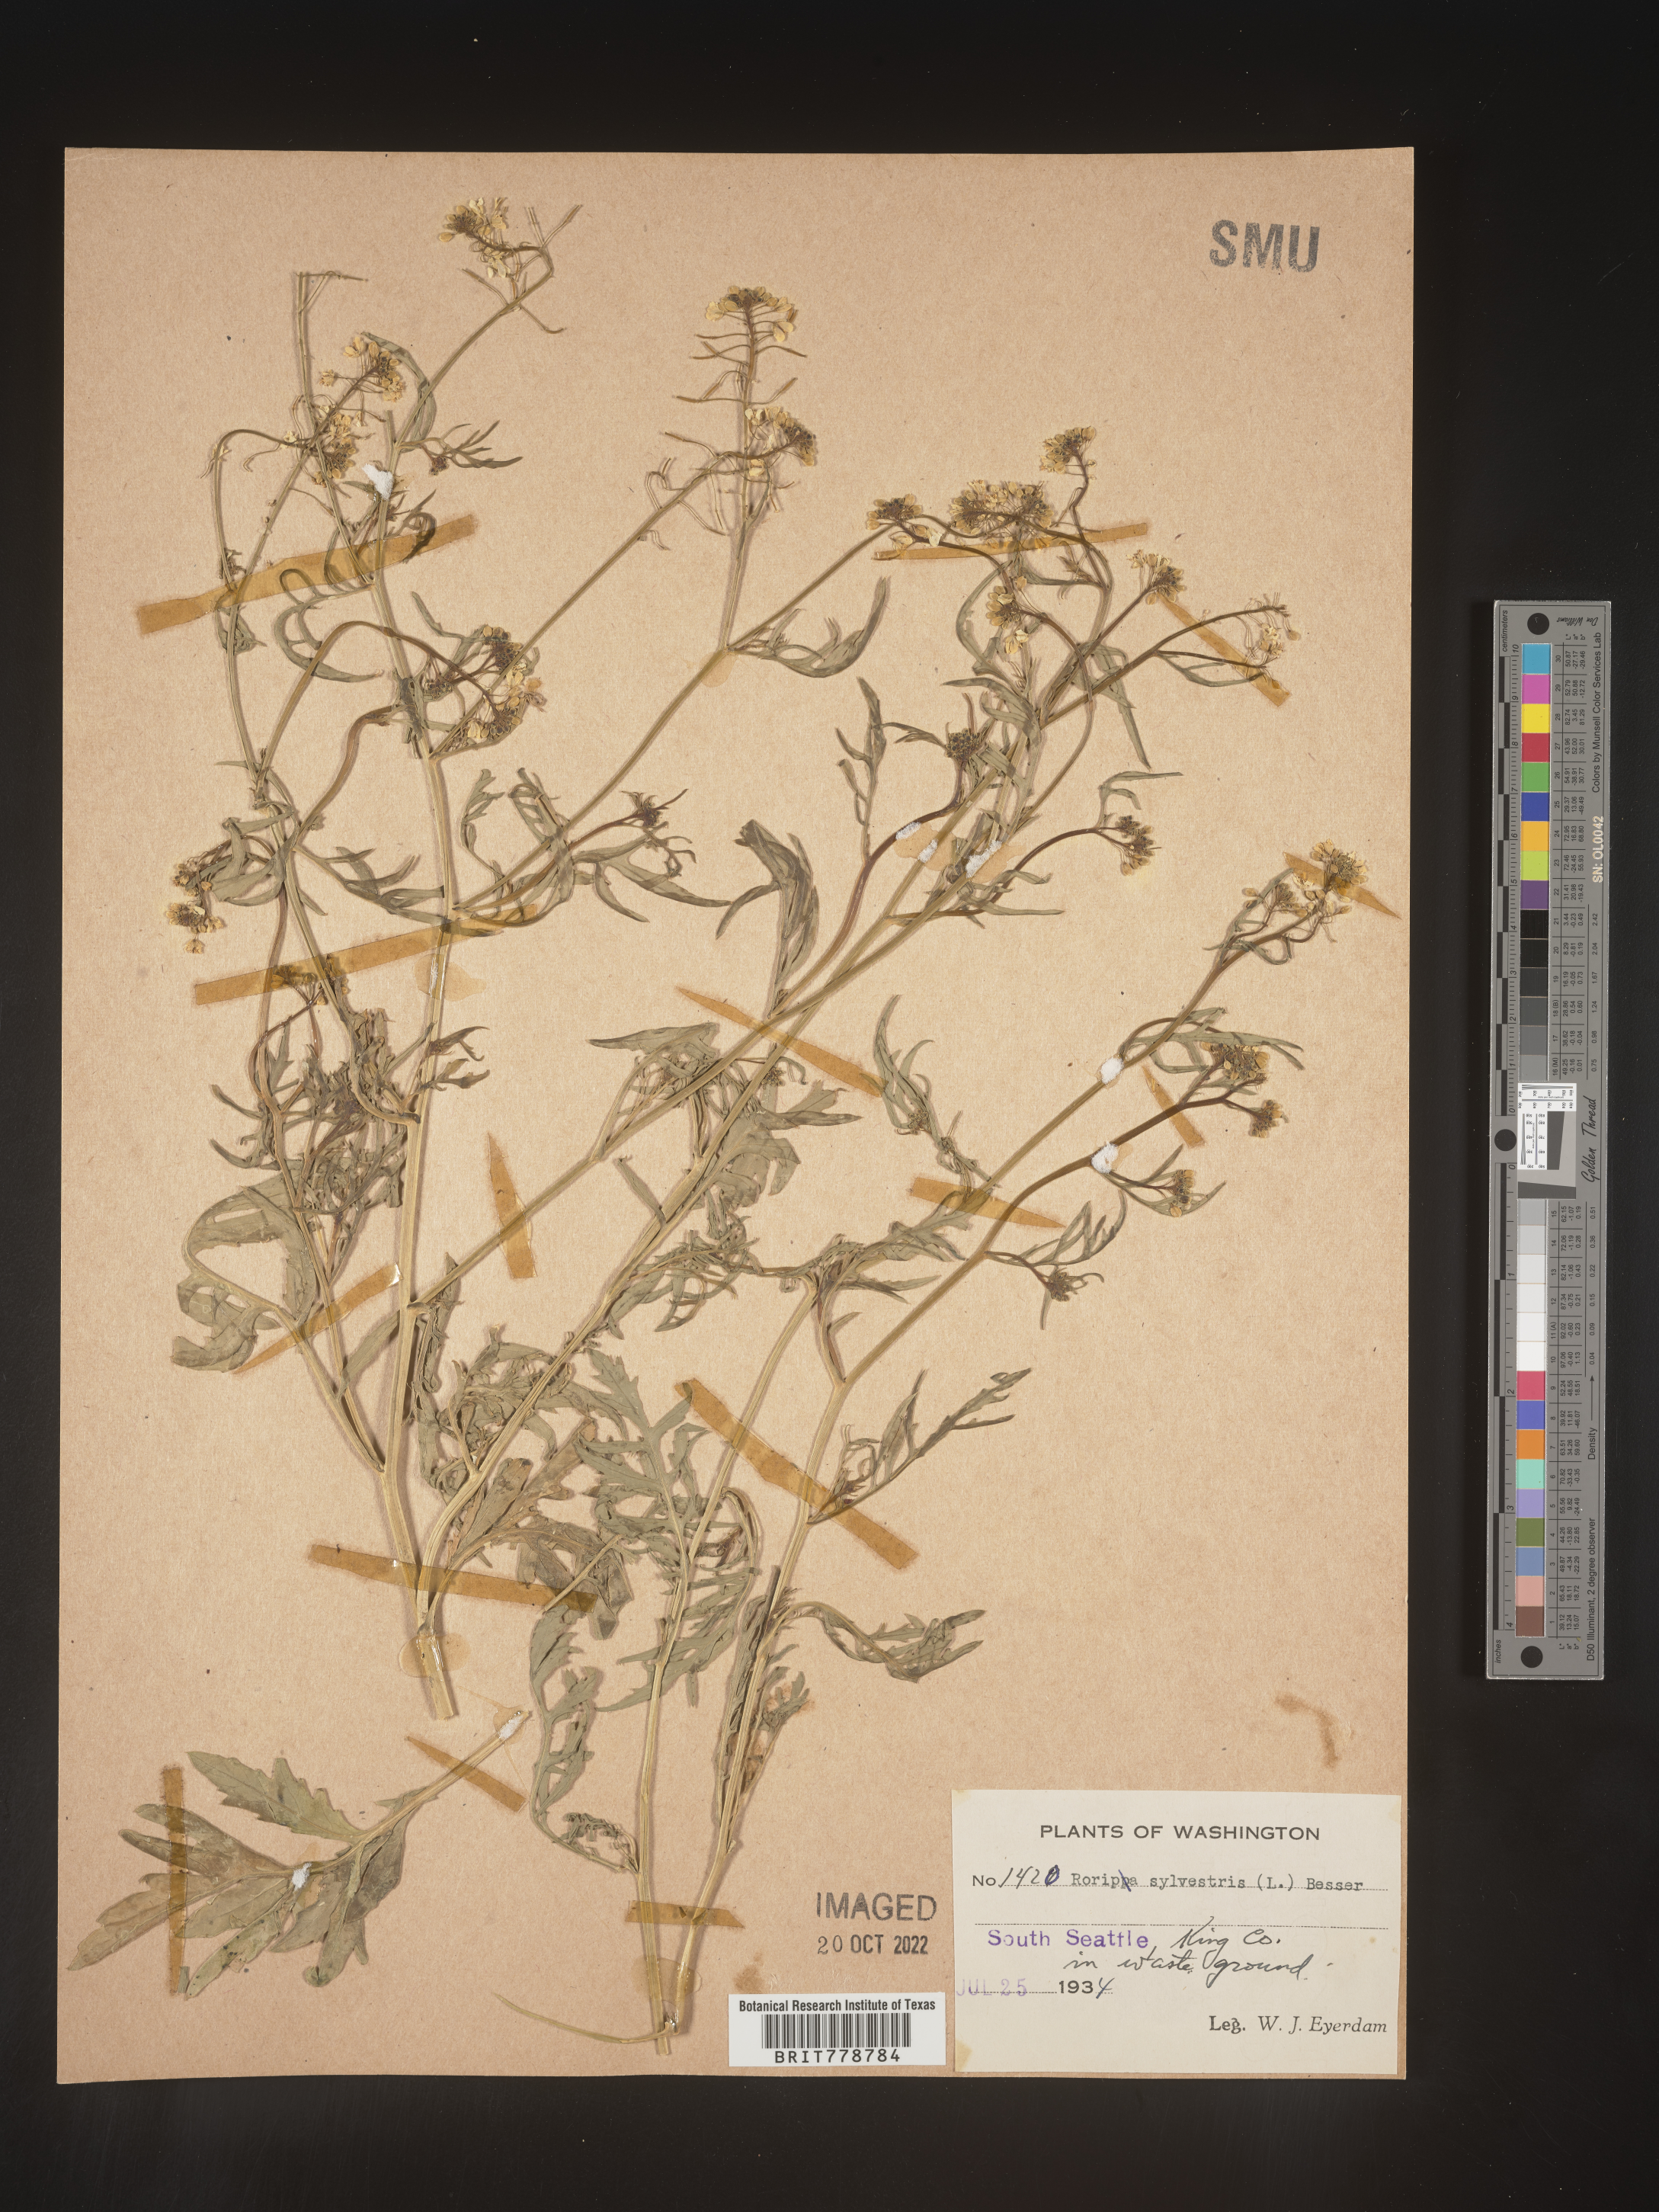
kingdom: Plantae
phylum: Tracheophyta
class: Magnoliopsida
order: Brassicales
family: Brassicaceae
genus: Rorippa
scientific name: Rorippa sylvestris
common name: Creeping yellowcress
